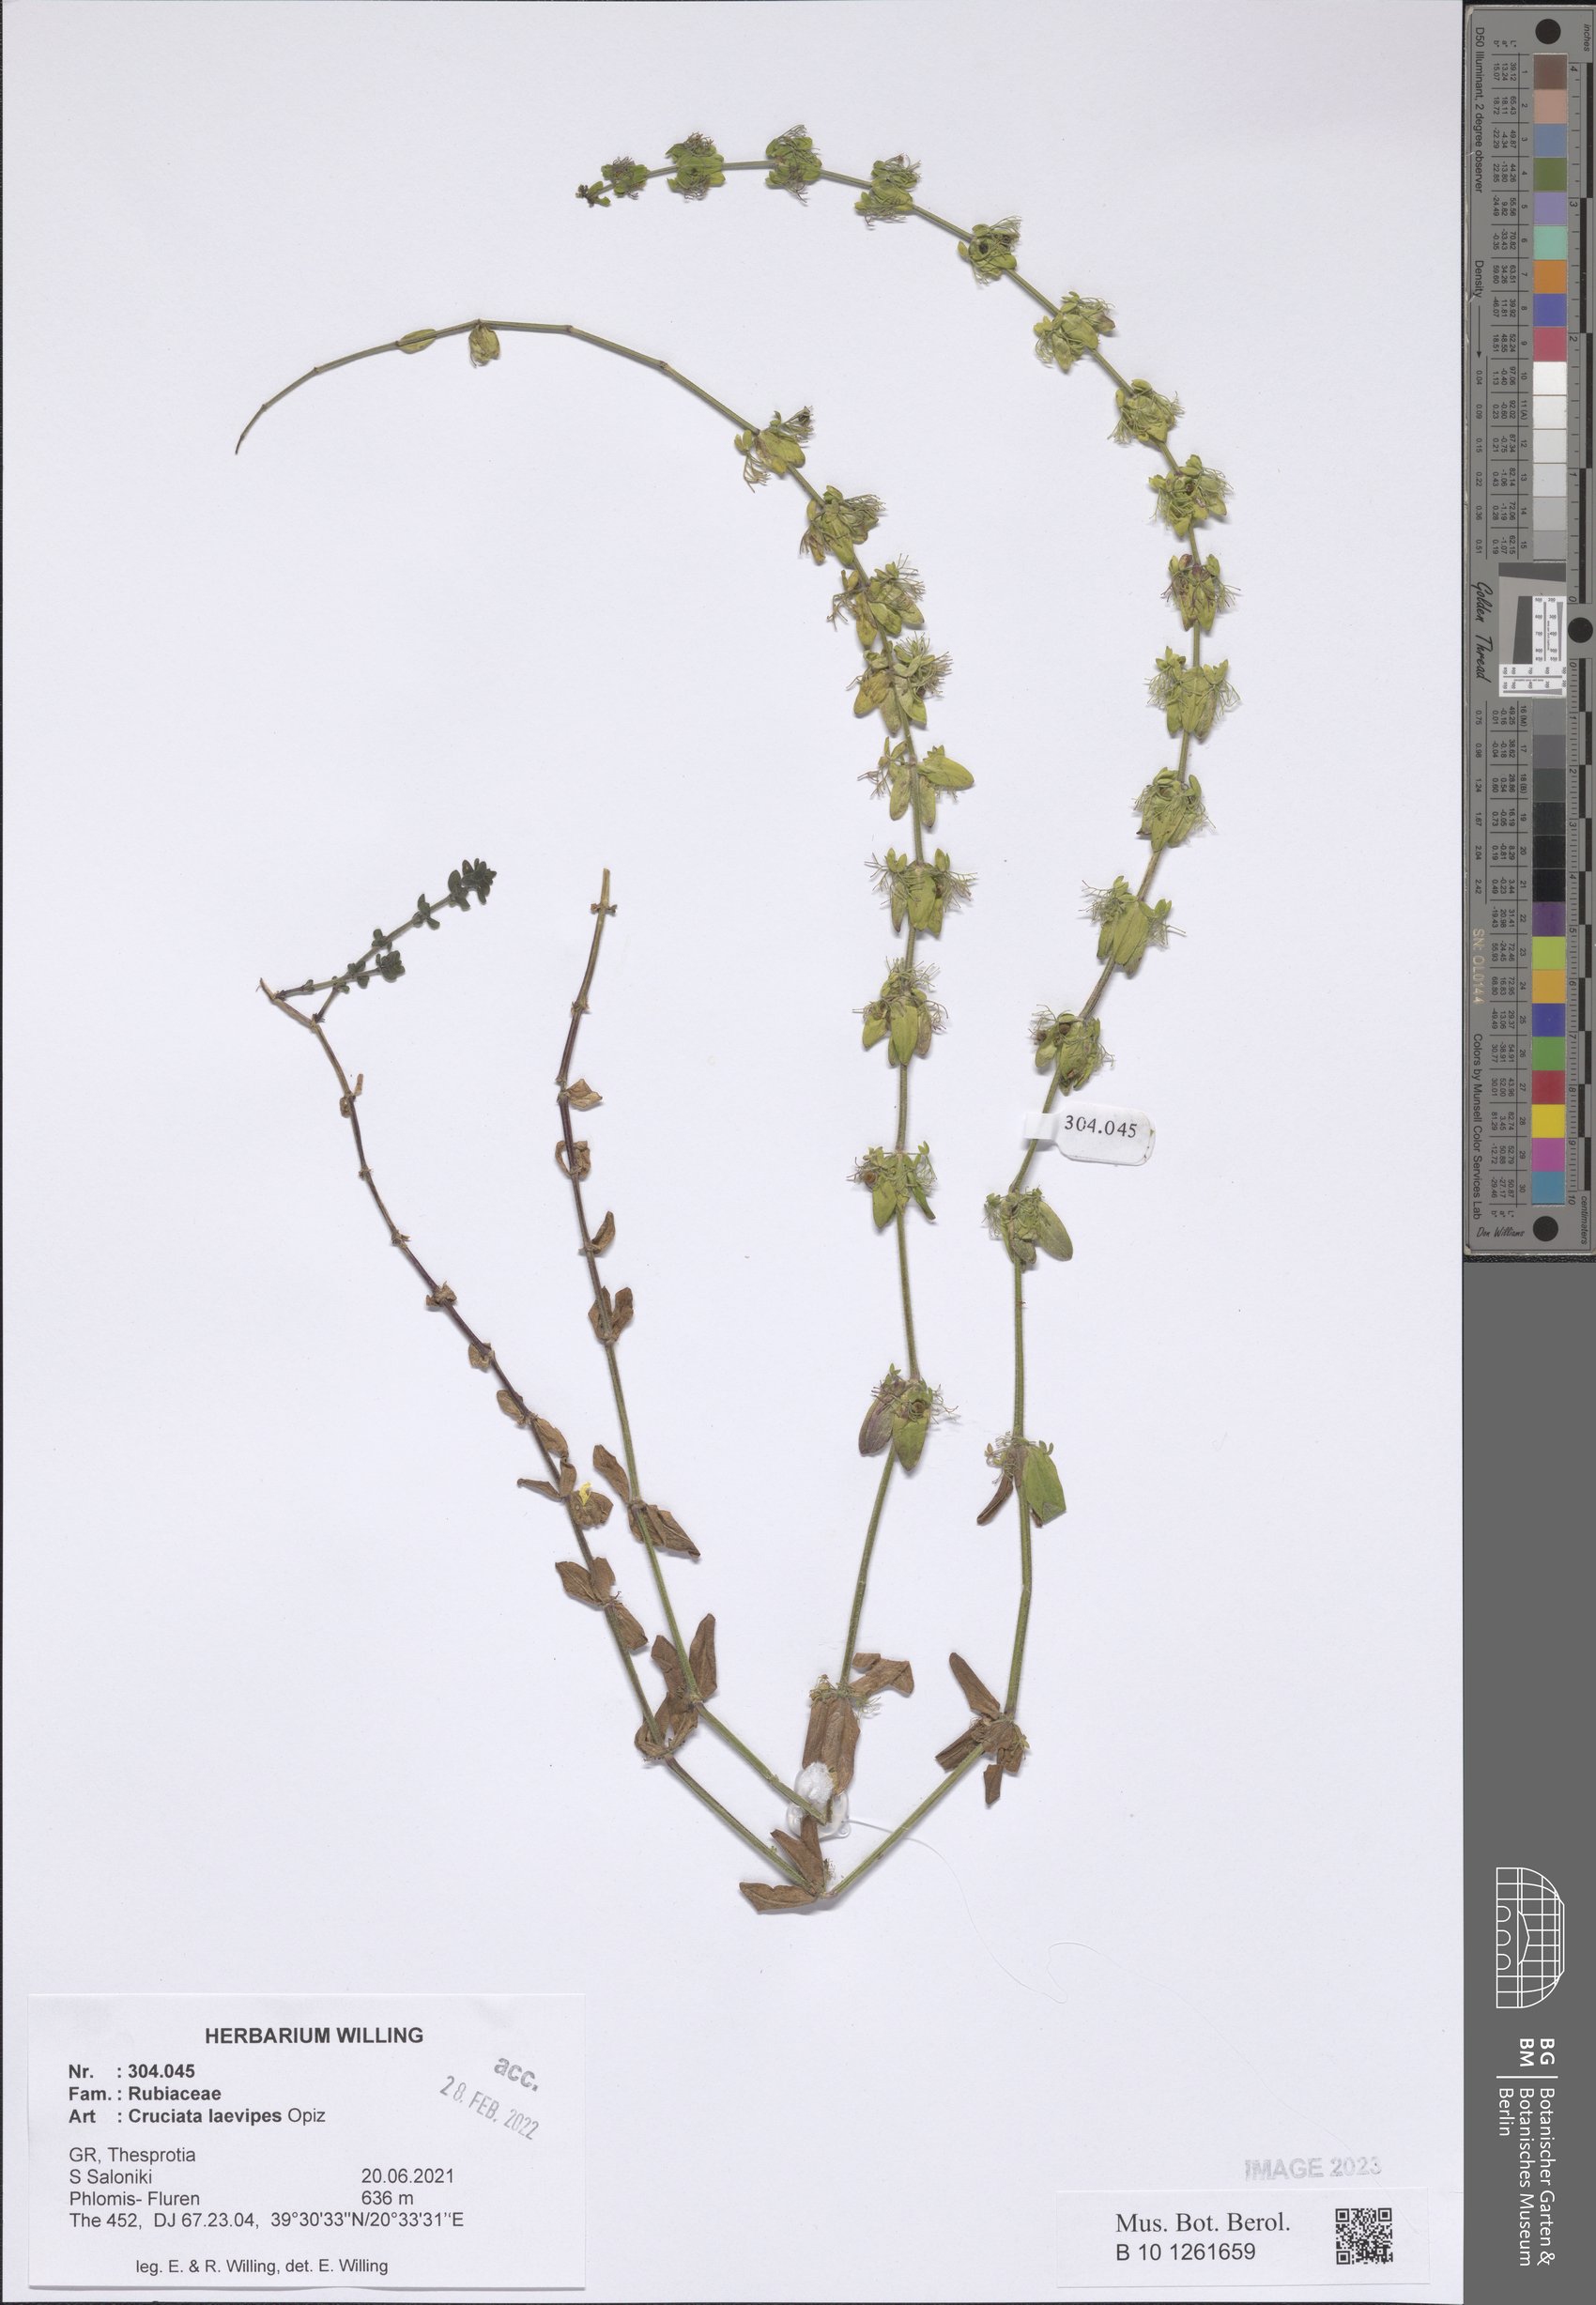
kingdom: Plantae
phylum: Tracheophyta
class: Magnoliopsida
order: Gentianales
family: Rubiaceae
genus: Cruciata
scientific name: Cruciata laevipes
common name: Crosswort
